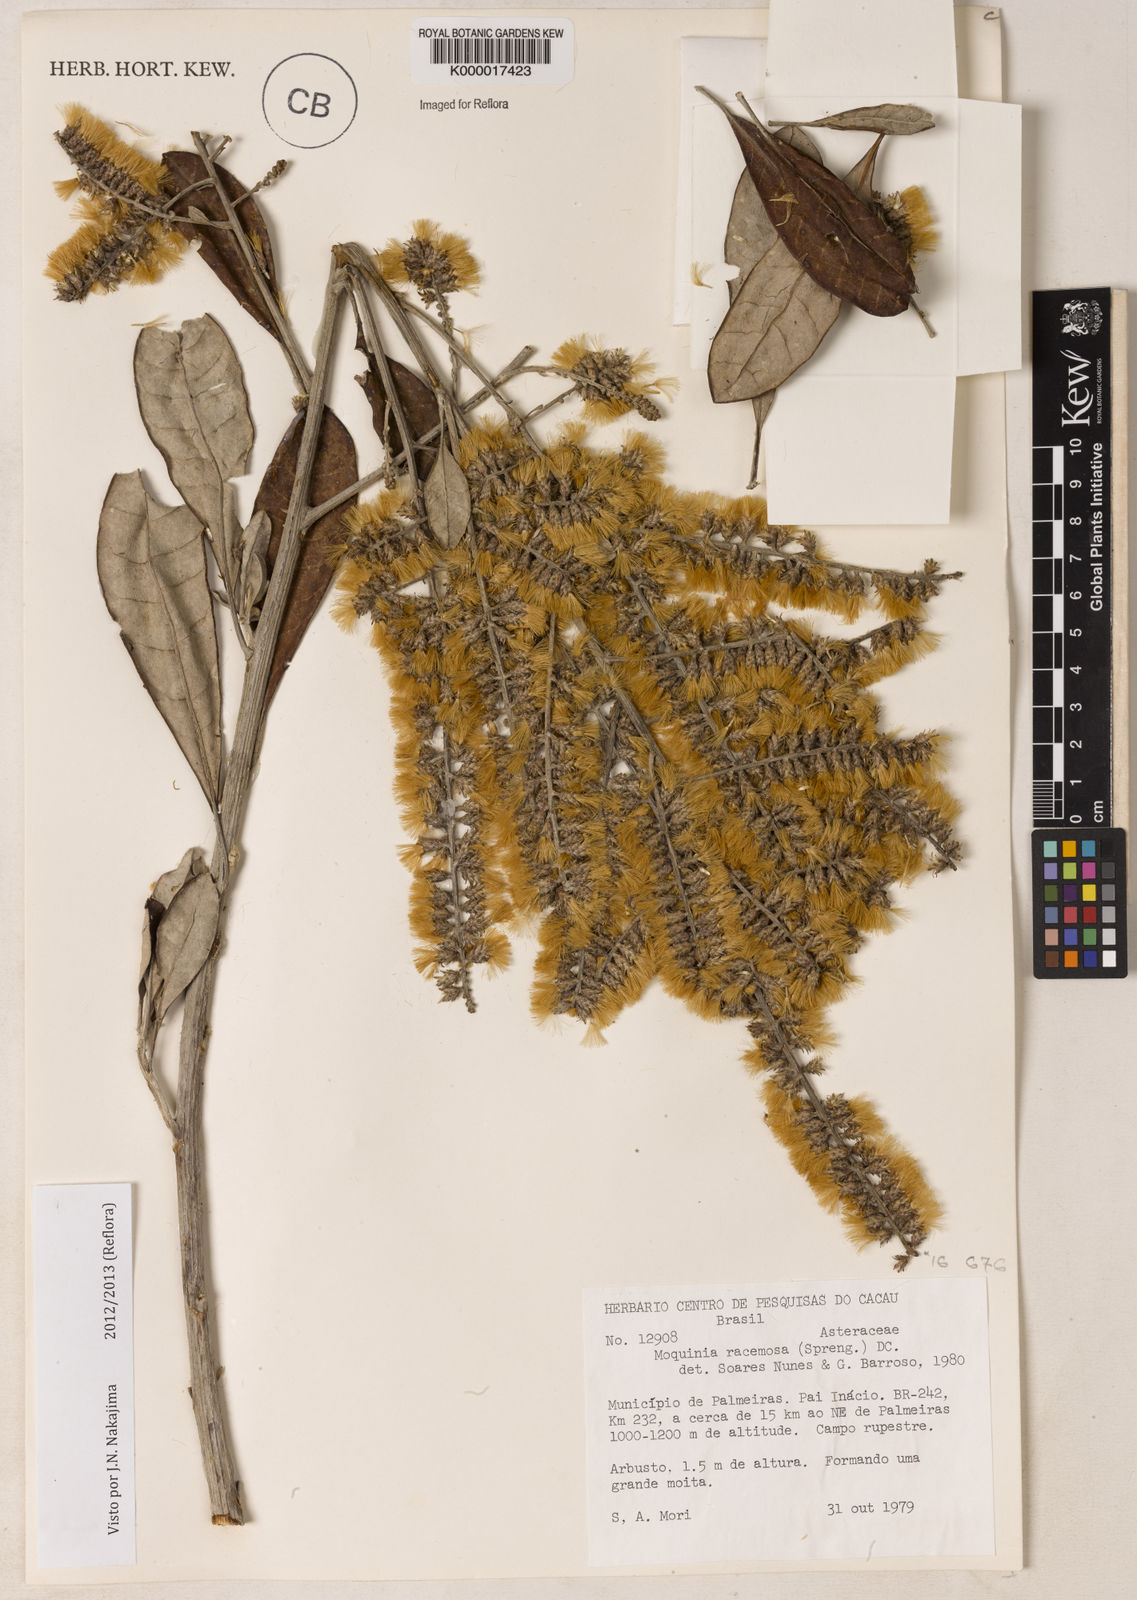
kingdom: Plantae
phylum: Tracheophyta
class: Magnoliopsida
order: Asterales
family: Asteraceae
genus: Moquinia
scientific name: Moquinia racemosa
